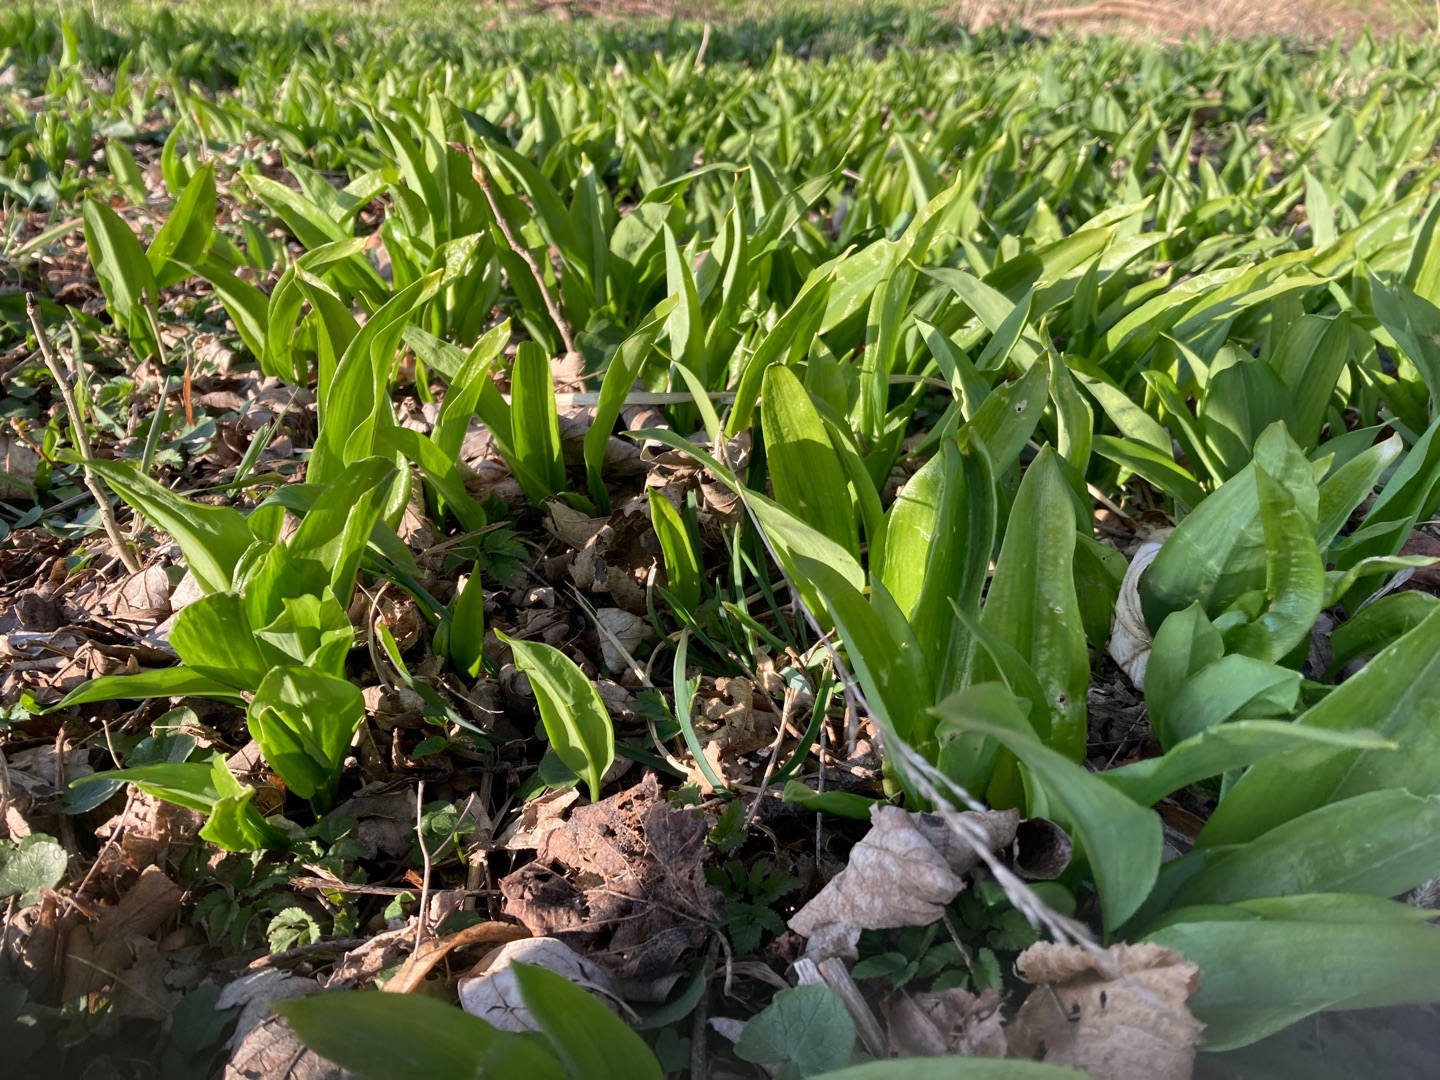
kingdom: Plantae
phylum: Tracheophyta
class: Liliopsida
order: Asparagales
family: Amaryllidaceae
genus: Allium
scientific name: Allium ursinum
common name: Rams-løg
